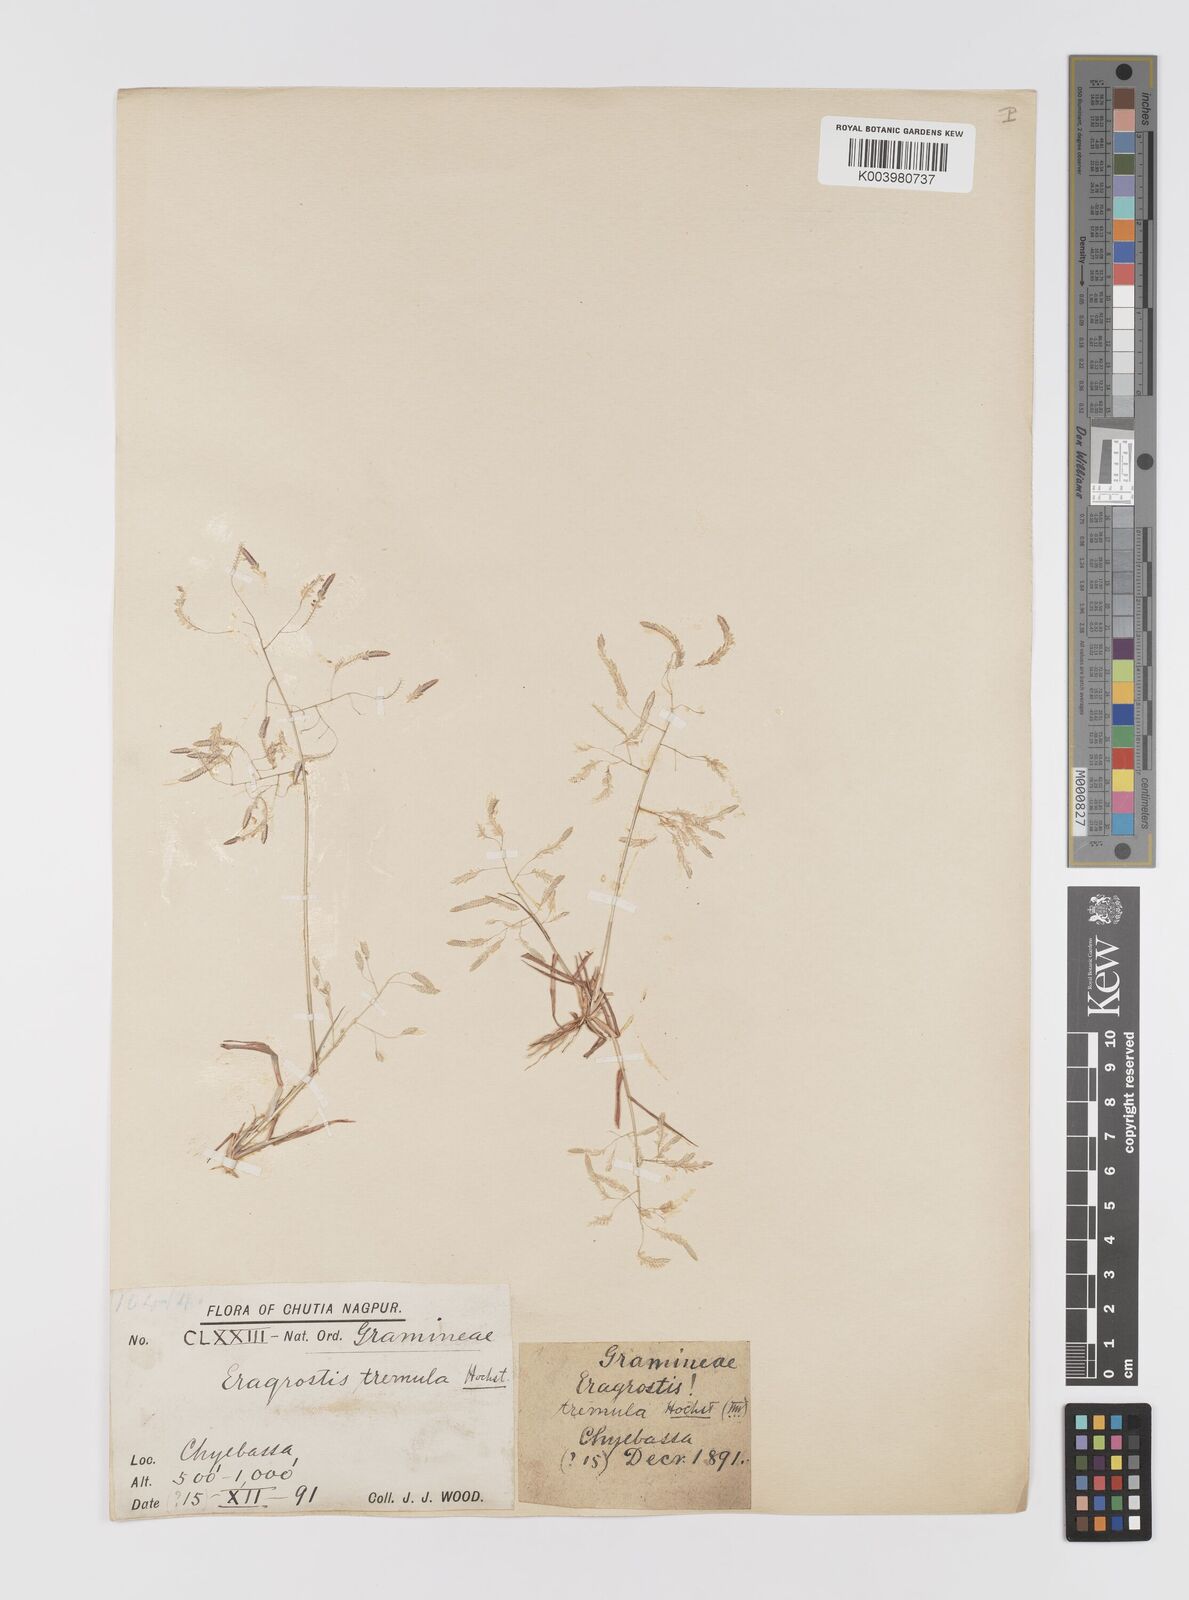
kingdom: Plantae
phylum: Tracheophyta
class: Liliopsida
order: Poales
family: Poaceae
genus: Eragrostis
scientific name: Eragrostis tremula
